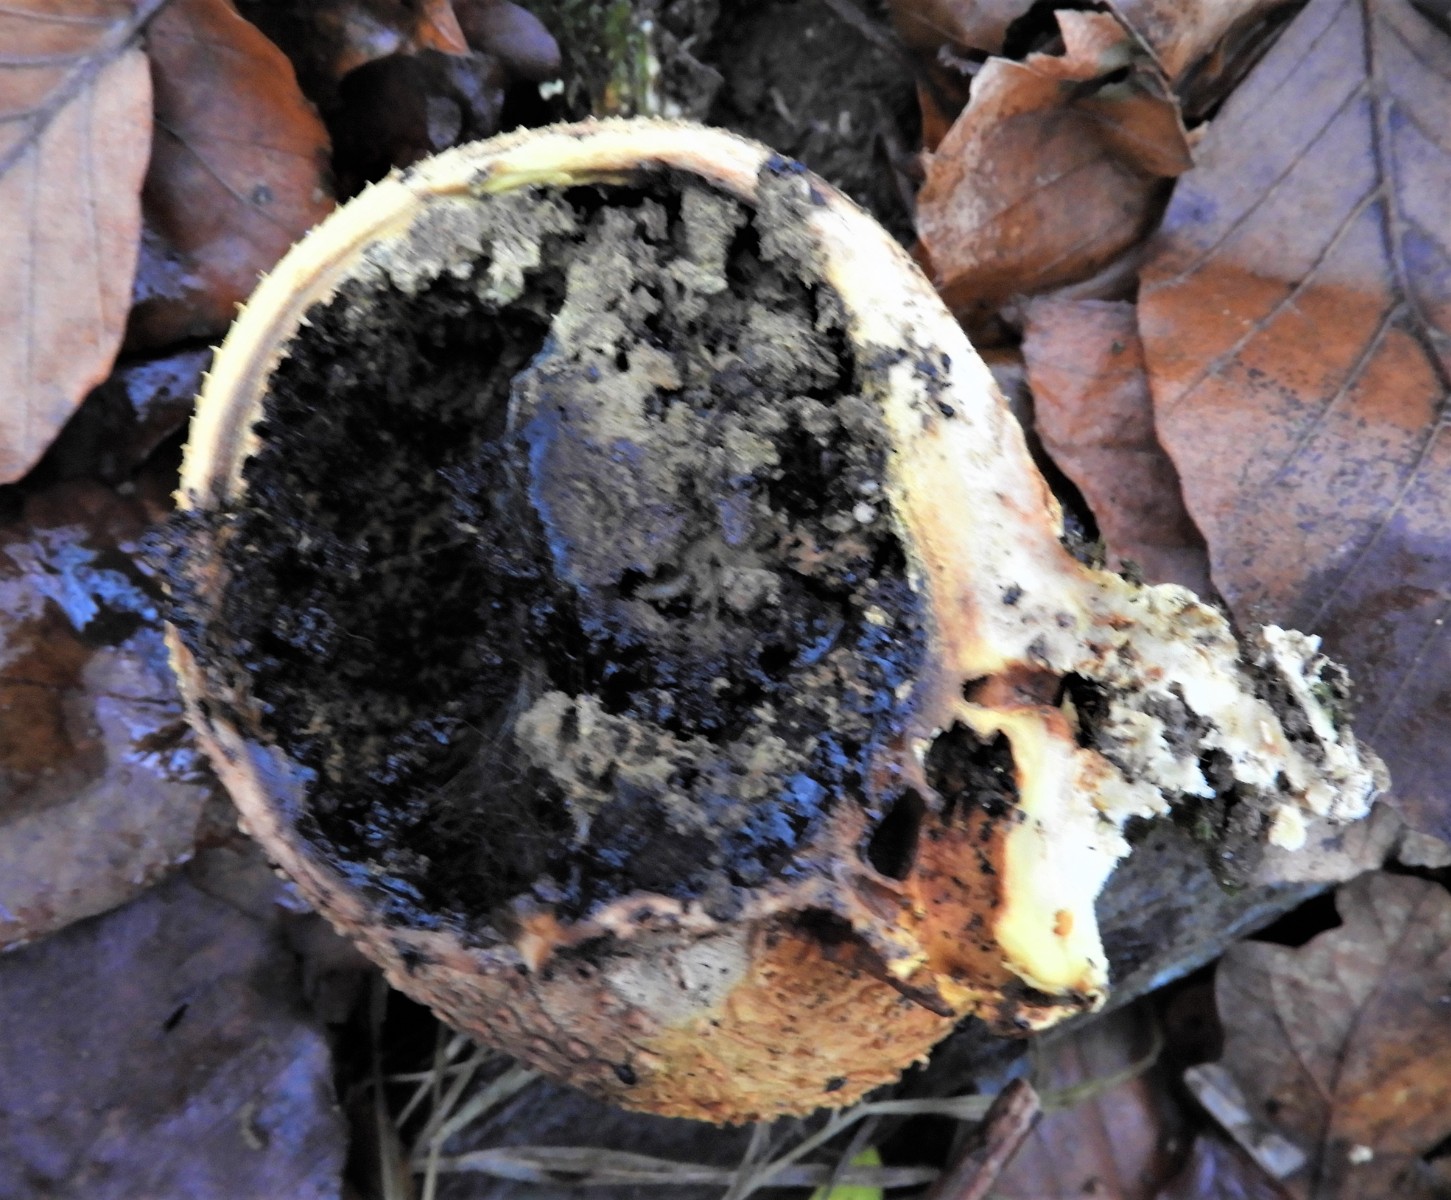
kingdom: Fungi
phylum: Basidiomycota
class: Agaricomycetes
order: Boletales
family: Sclerodermataceae
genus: Scleroderma
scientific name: Scleroderma citrinum
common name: almindelig bruskbold
